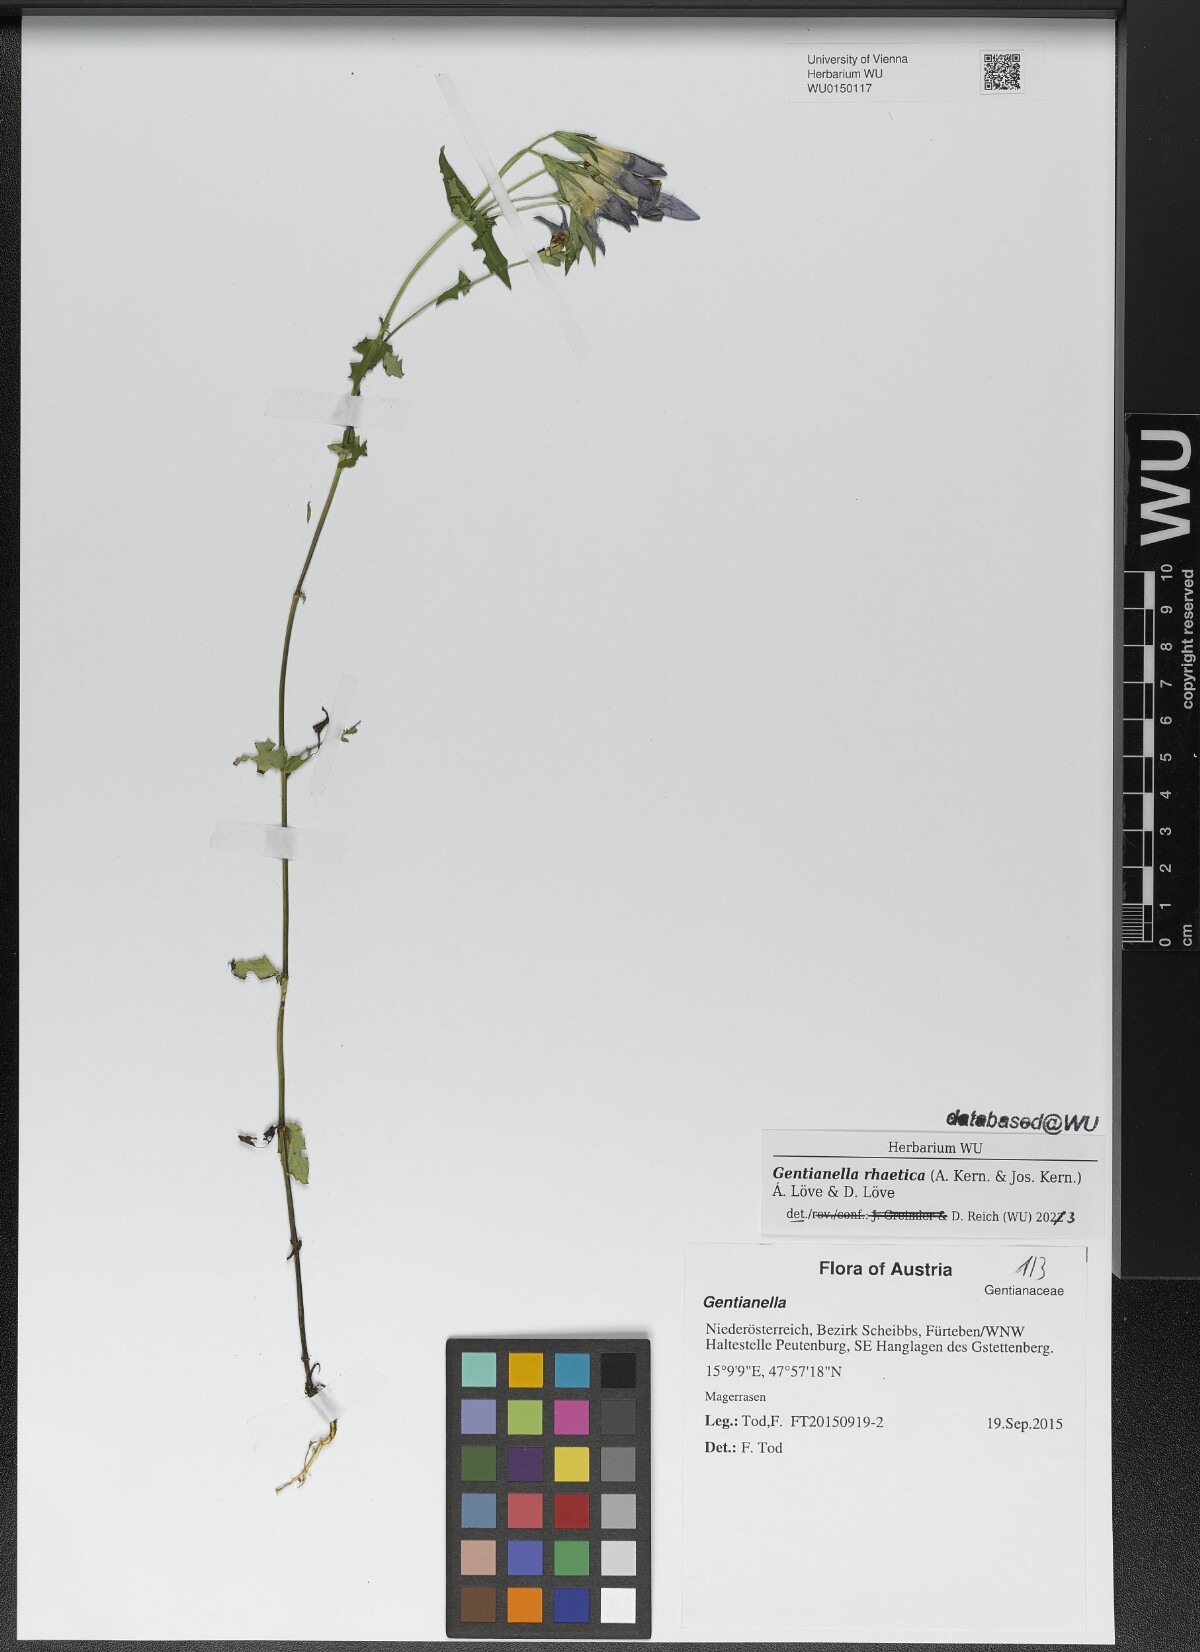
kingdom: Plantae
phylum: Tracheophyta
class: Magnoliopsida
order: Gentianales
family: Gentianaceae
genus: Gentianella
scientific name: Gentianella rhaetica
